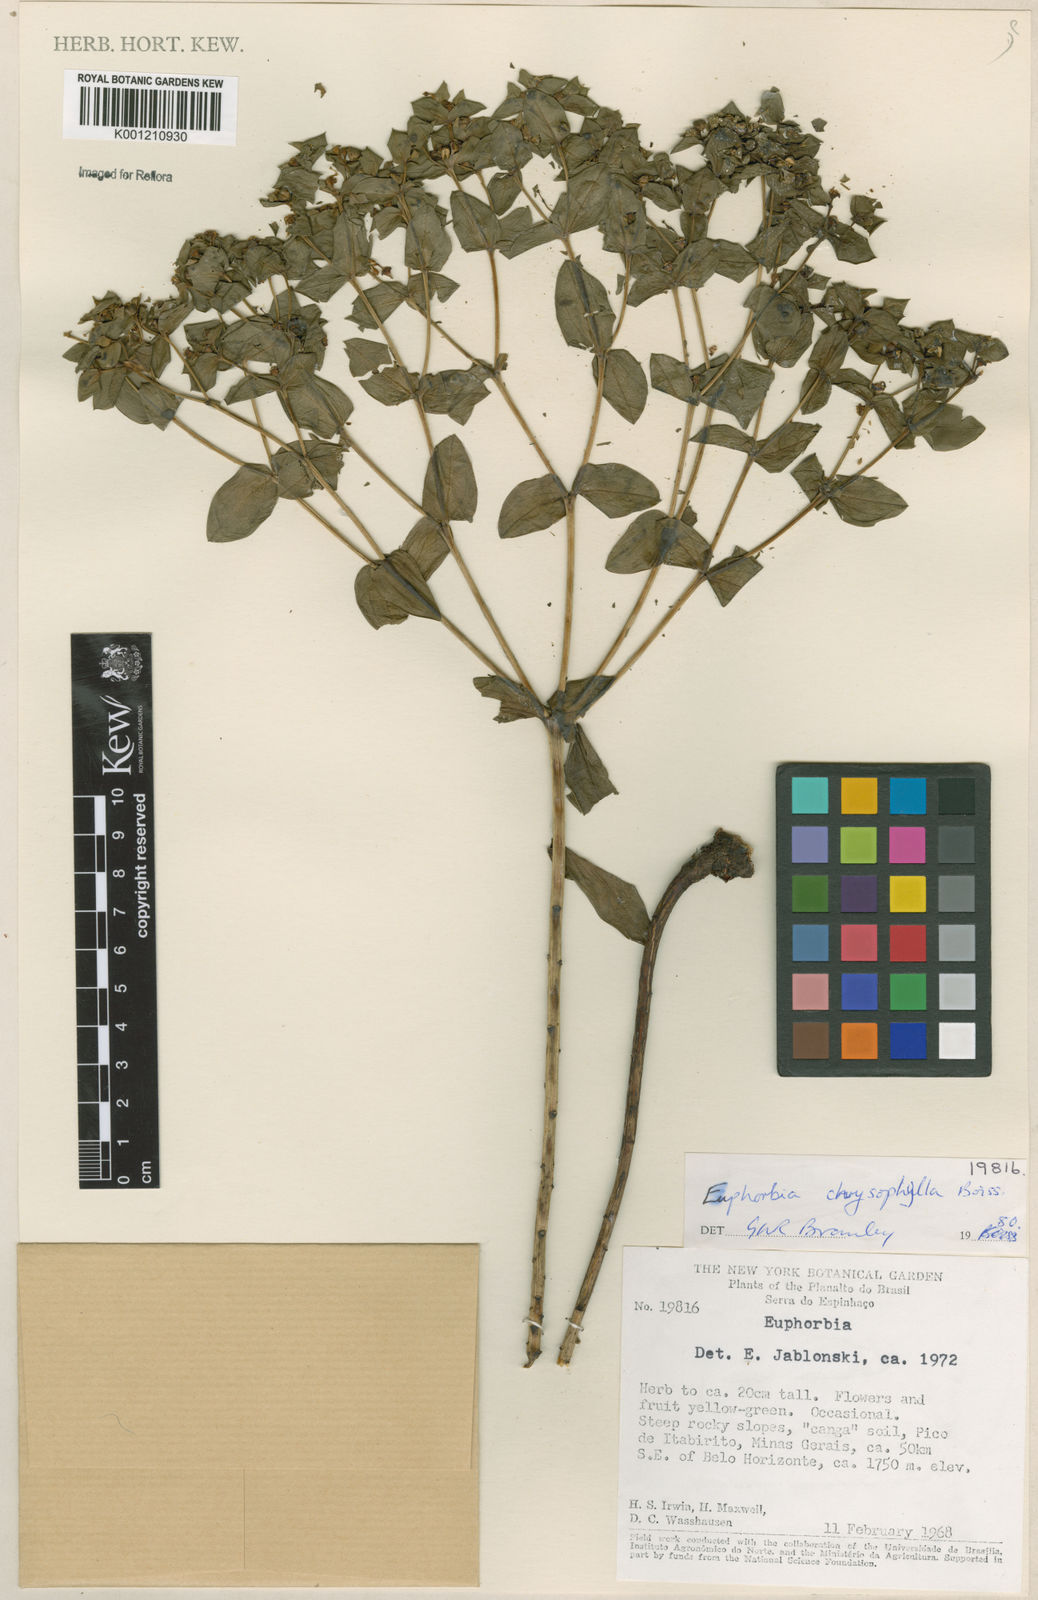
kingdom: Plantae
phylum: Tracheophyta
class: Magnoliopsida
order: Malpighiales
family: Euphorbiaceae
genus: Euphorbia
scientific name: Euphorbia chrysophylla
